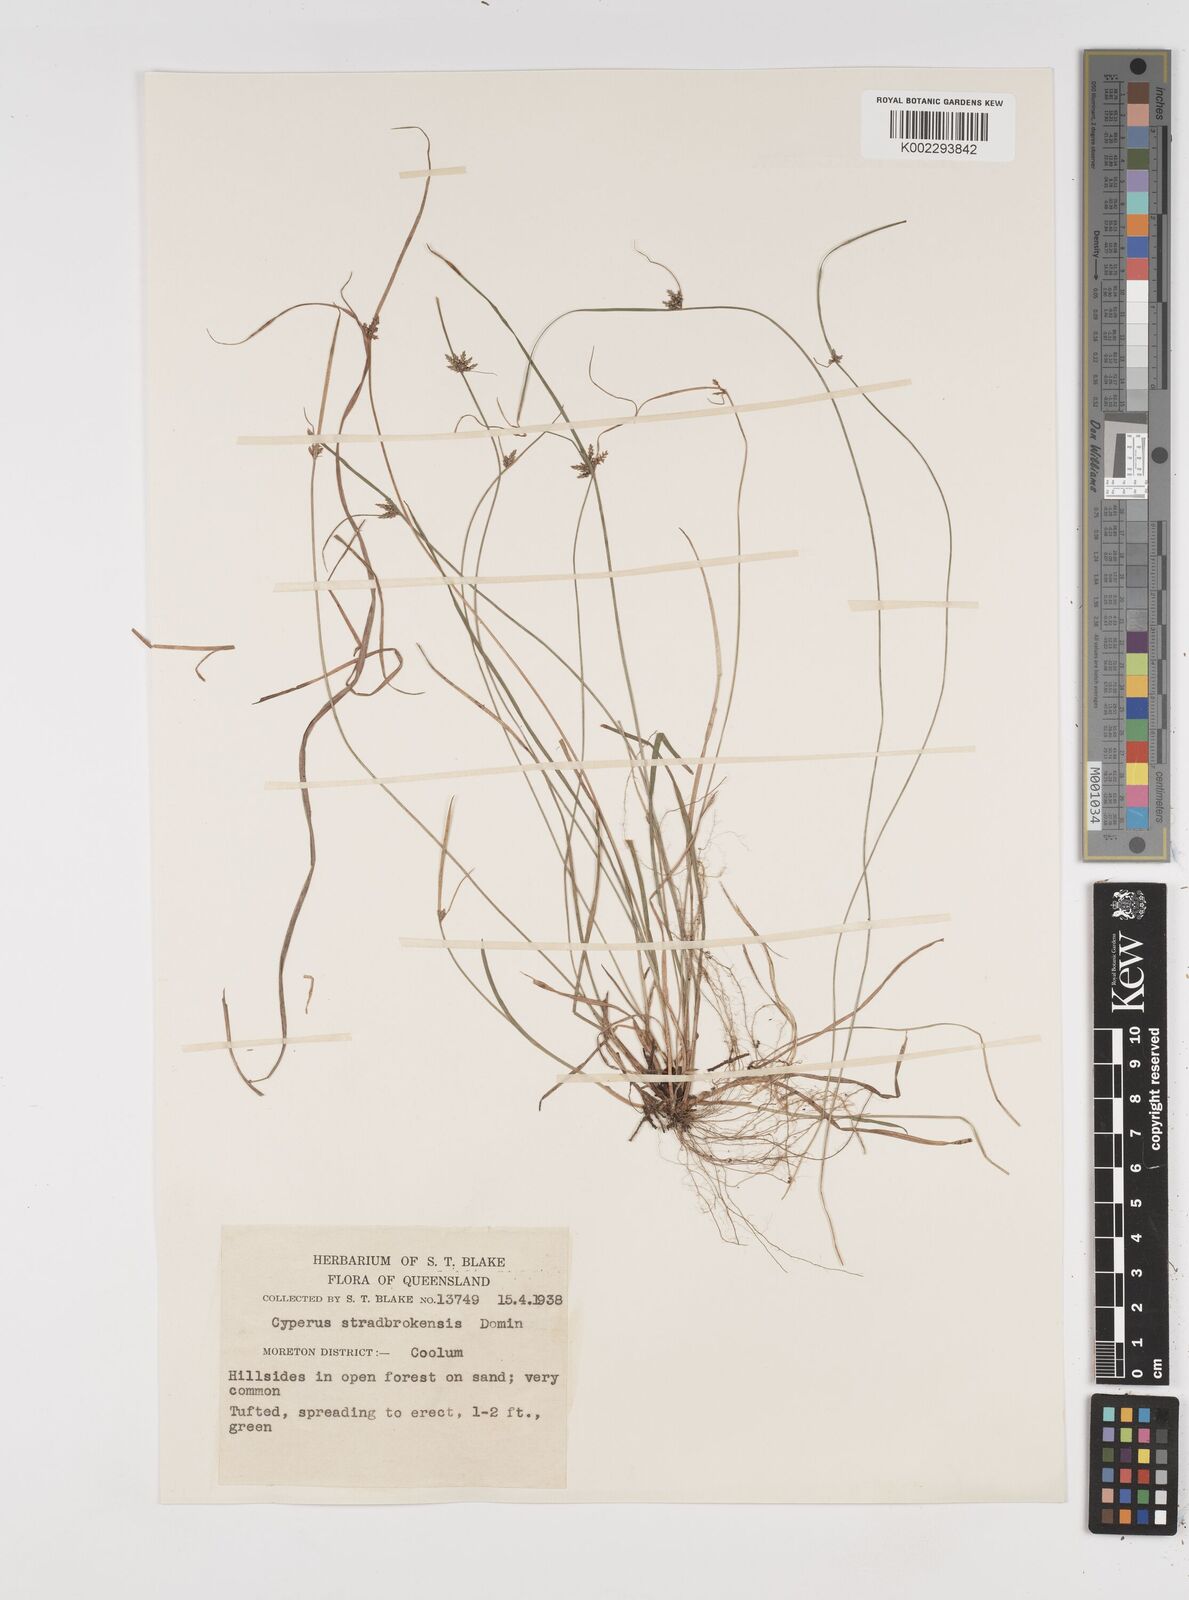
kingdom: Plantae
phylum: Tracheophyta
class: Liliopsida
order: Poales
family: Cyperaceae
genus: Cyperus
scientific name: Cyperus stradbrokensis
